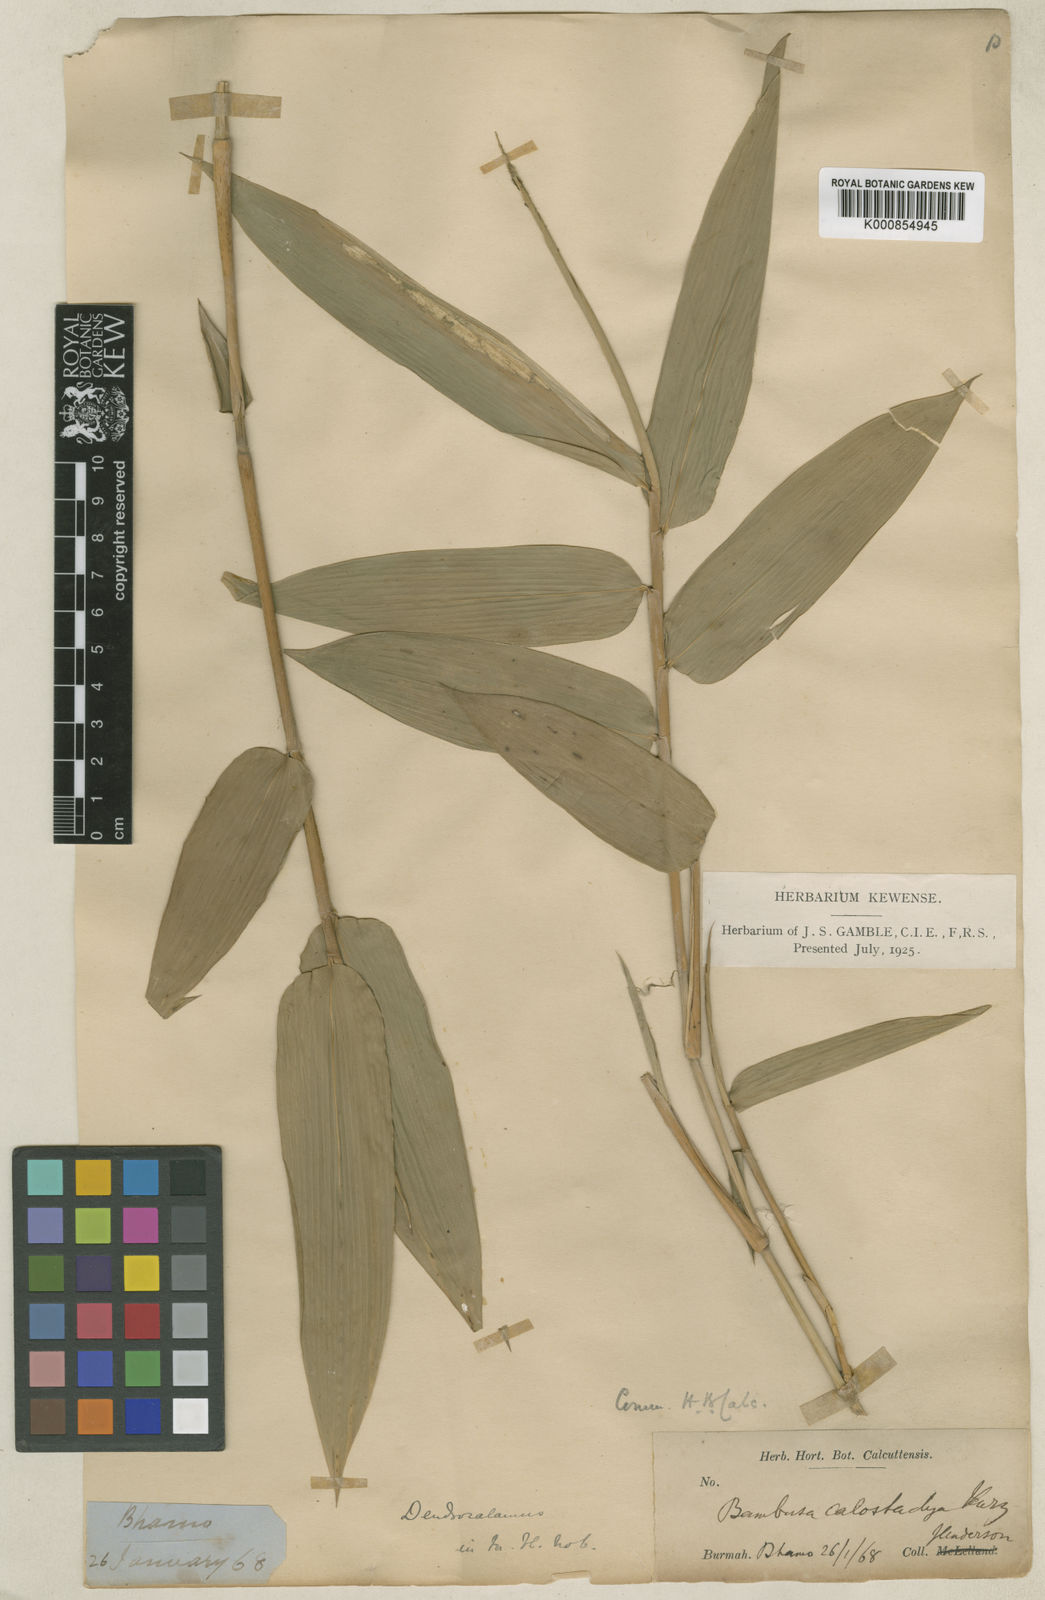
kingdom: Plantae
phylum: Tracheophyta
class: Liliopsida
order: Poales
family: Poaceae
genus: Dendrocalamus
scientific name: Dendrocalamus
